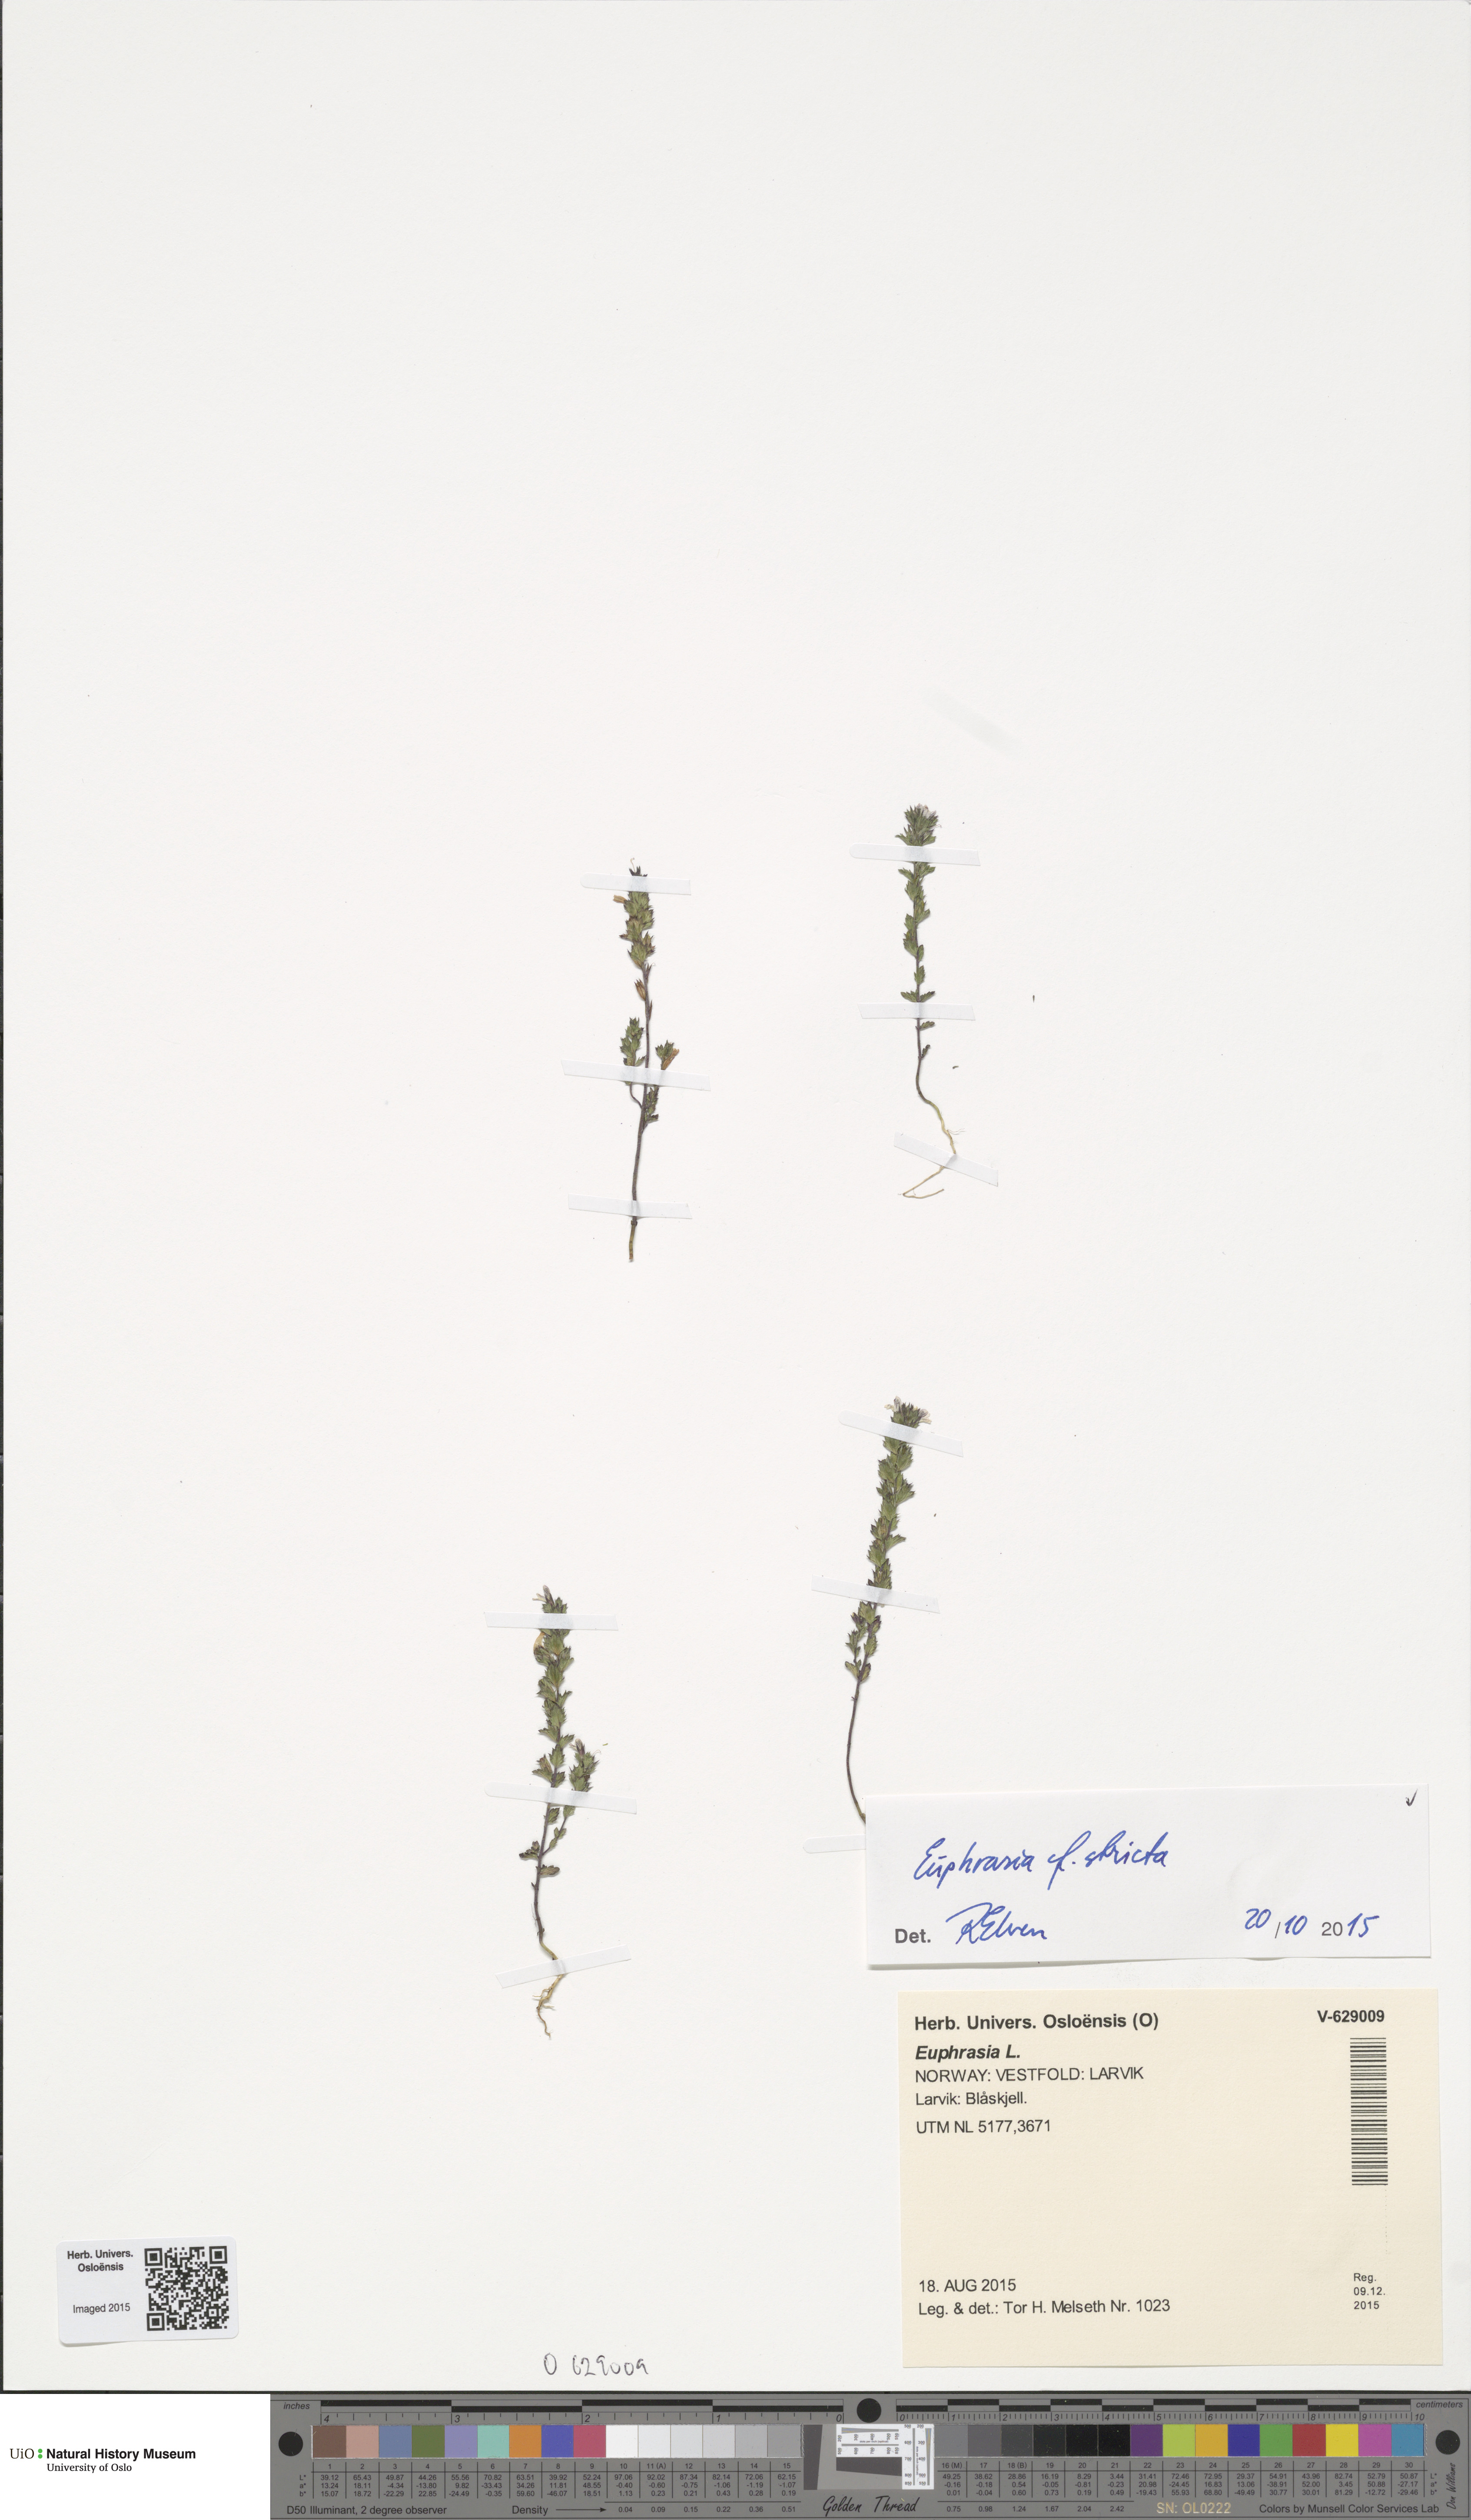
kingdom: Plantae
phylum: Tracheophyta
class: Magnoliopsida
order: Lamiales
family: Orobanchaceae
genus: Euphrasia
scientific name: Euphrasia stricta
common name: Drug eyebright
